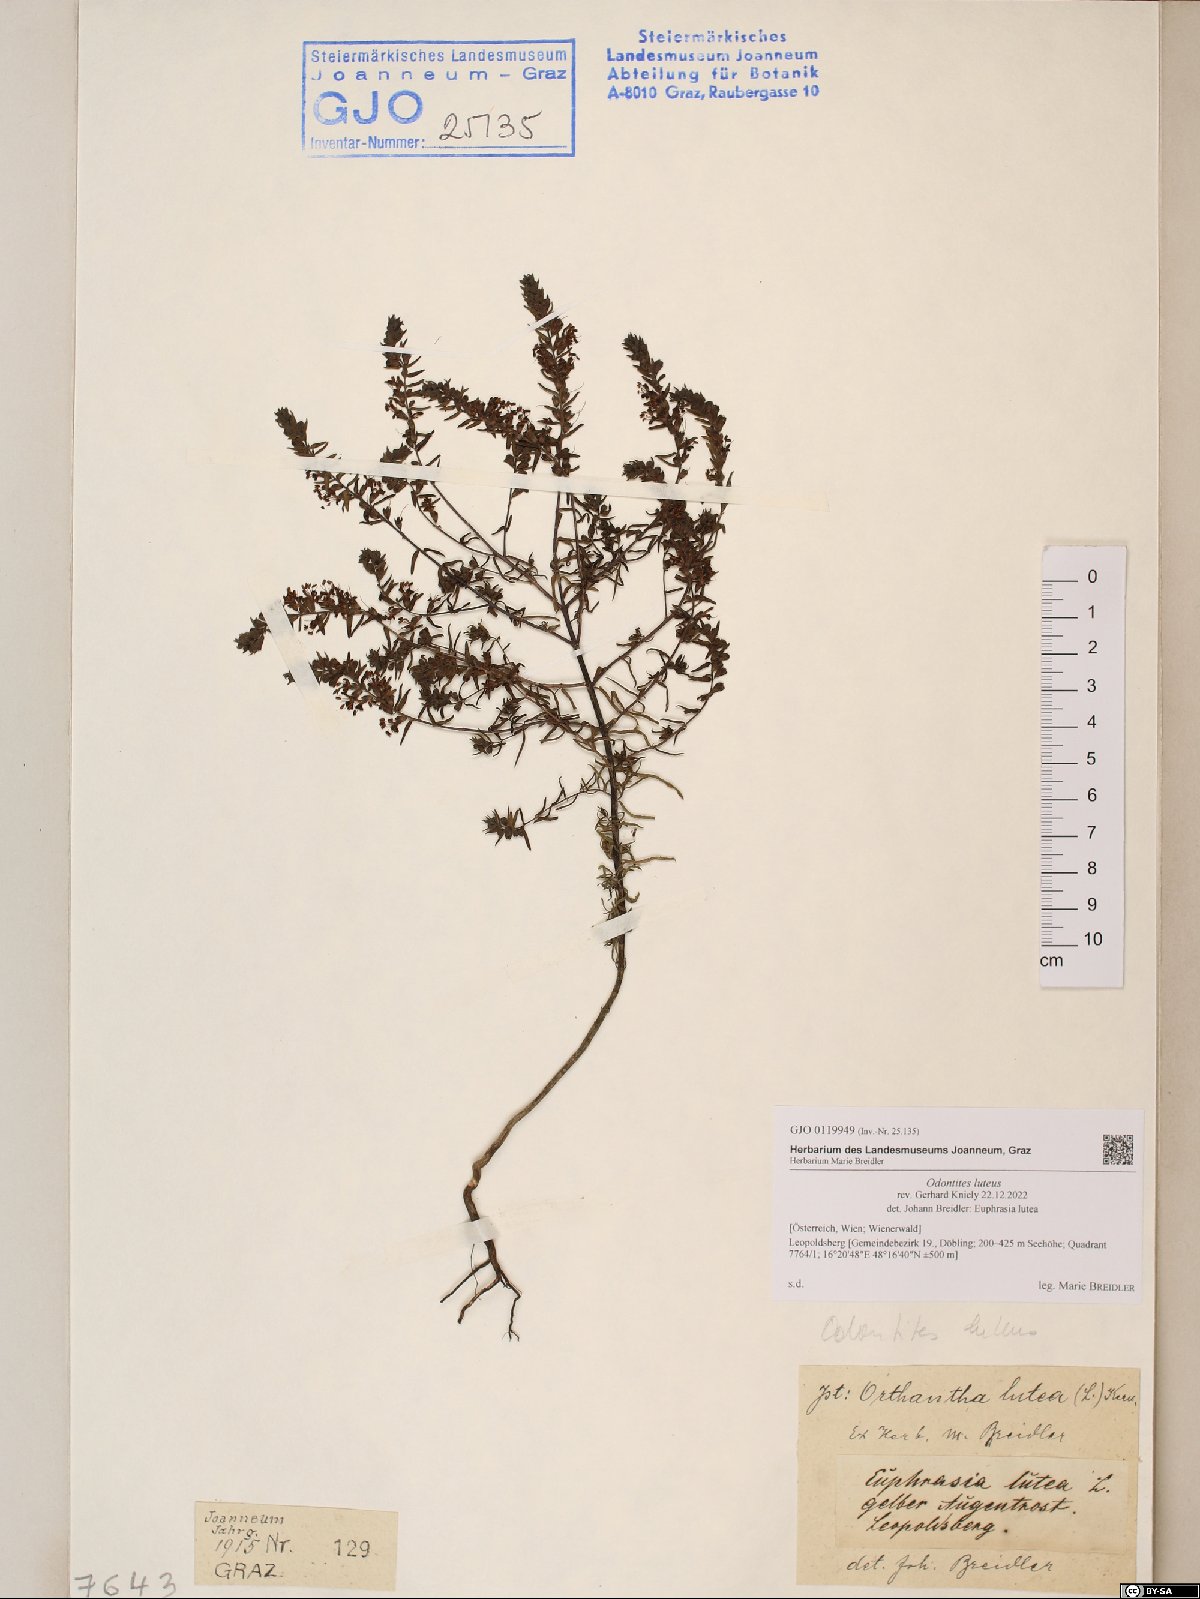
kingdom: Plantae
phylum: Tracheophyta
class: Magnoliopsida
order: Lamiales
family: Orobanchaceae
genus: Odontites
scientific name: Odontites luteus
